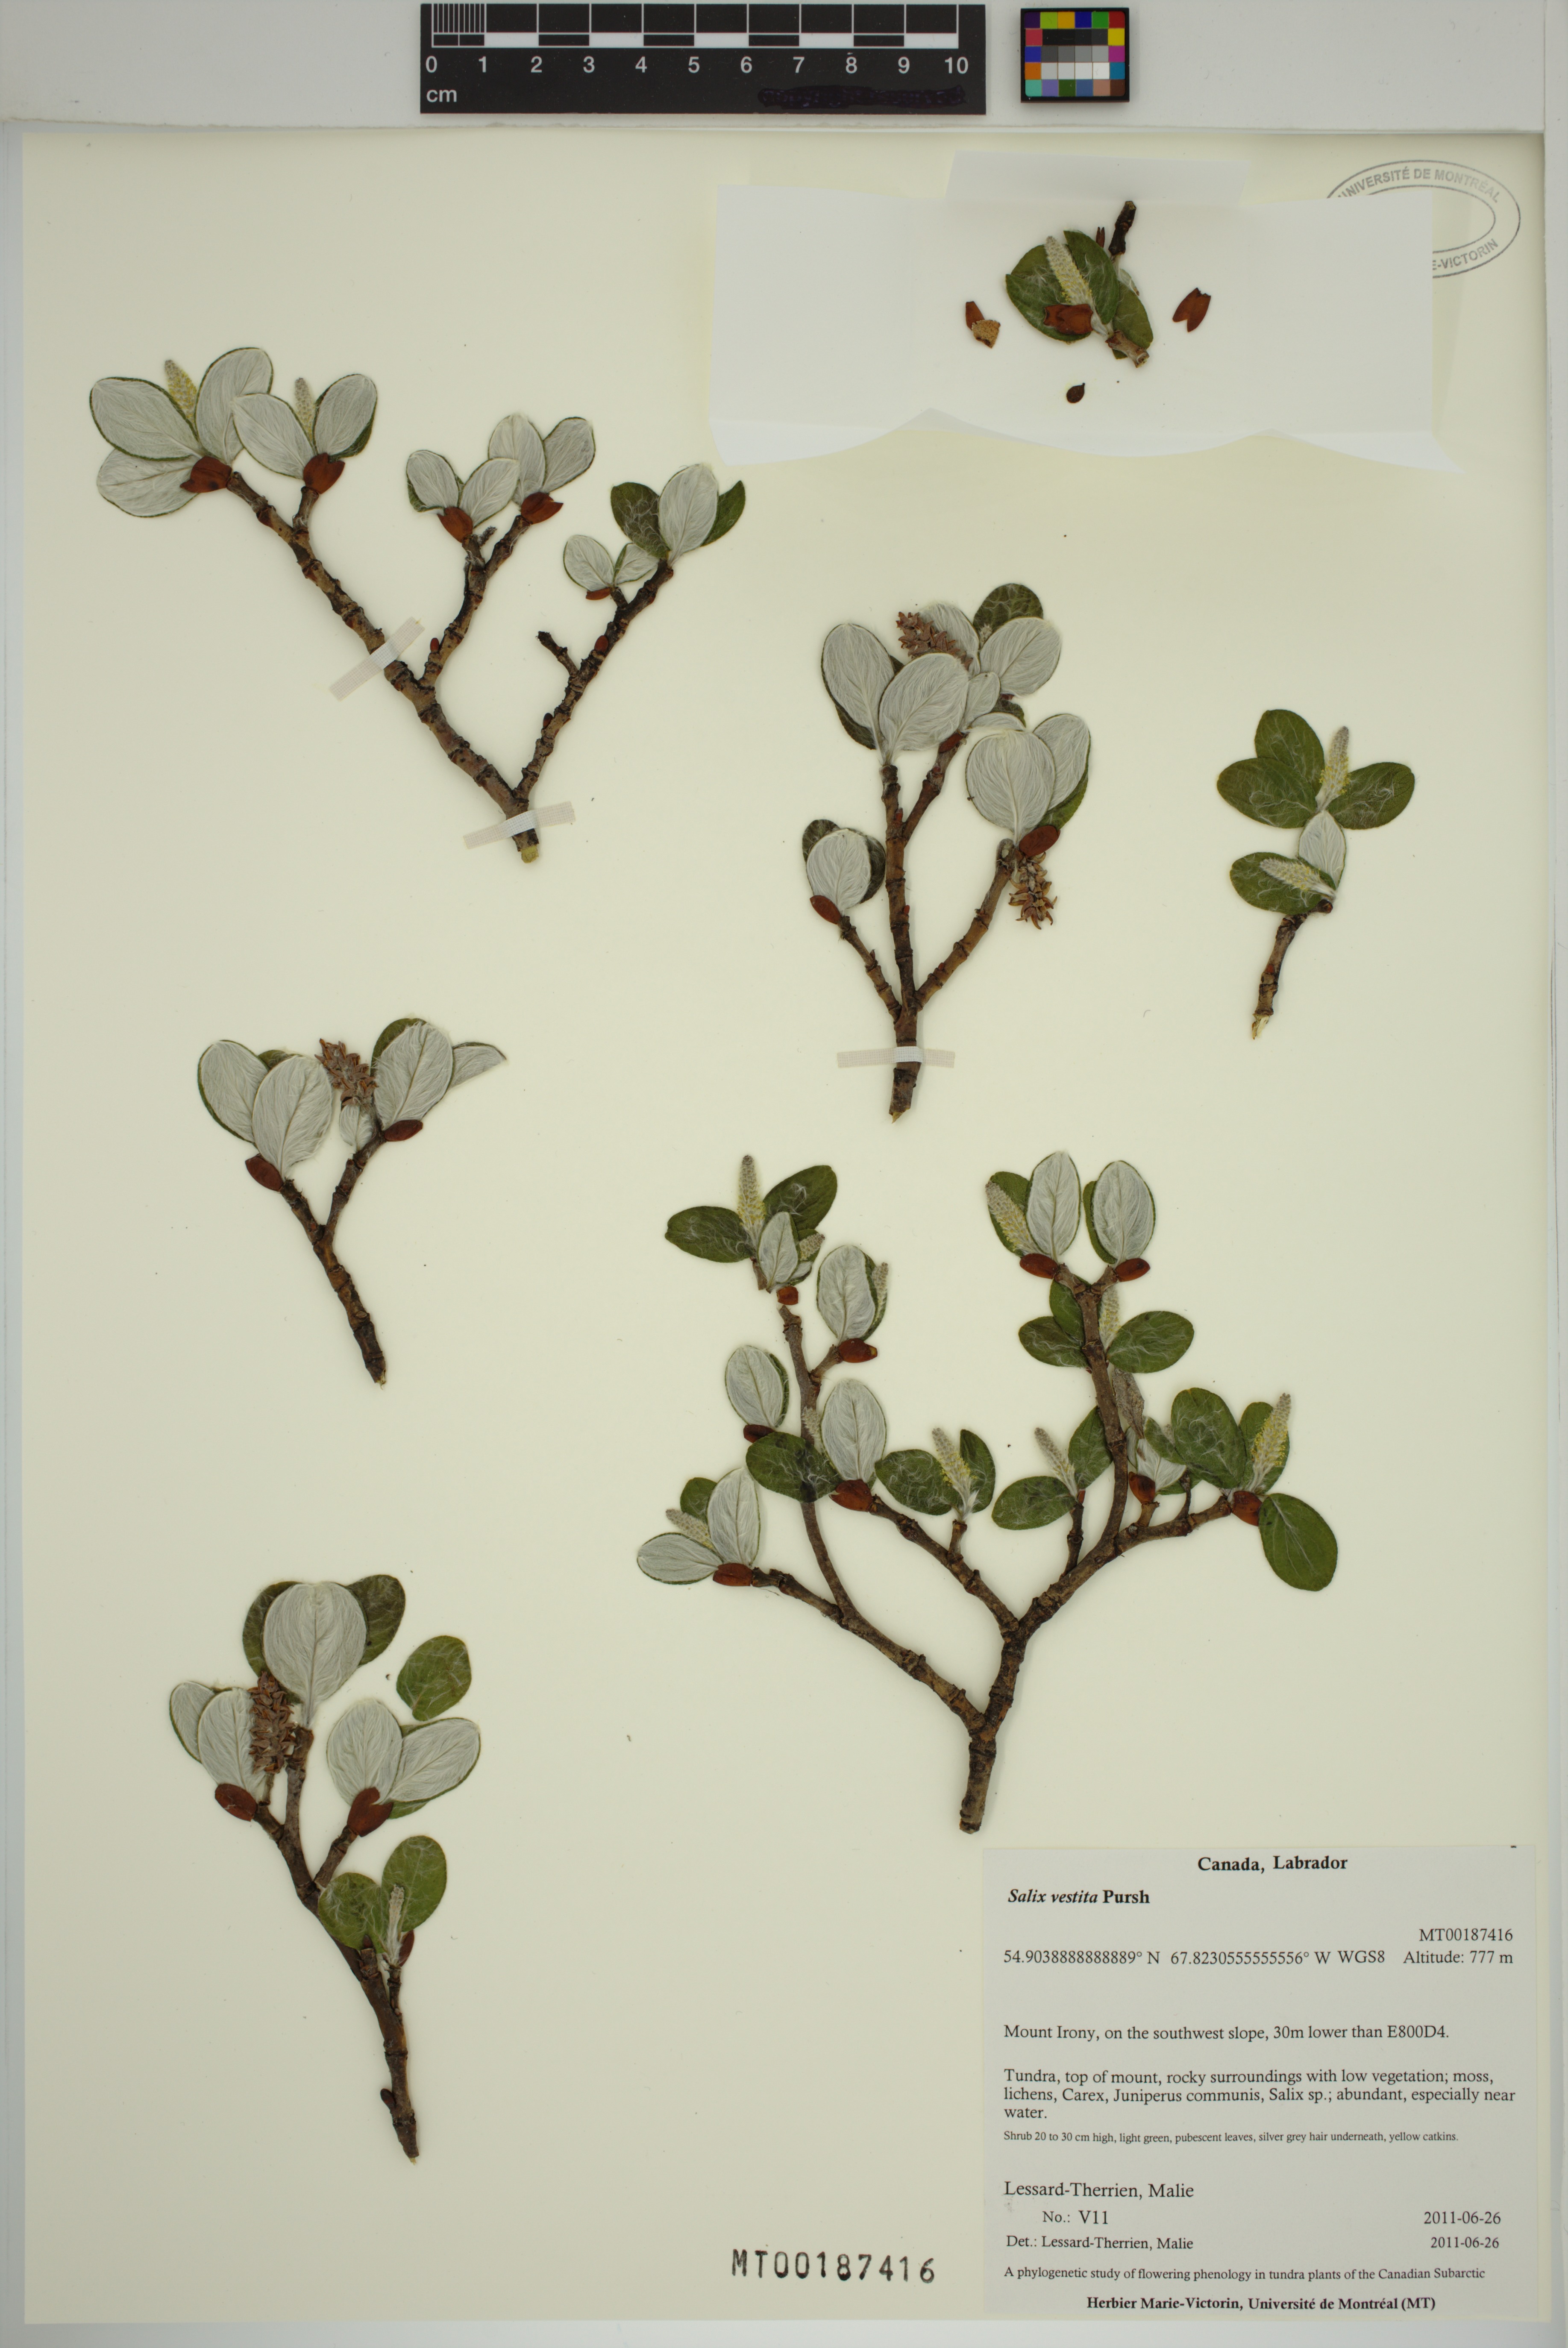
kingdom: Plantae
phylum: Tracheophyta
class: Magnoliopsida
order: Malpighiales
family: Salicaceae
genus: Salix
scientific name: Salix vestita
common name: Hairy willow
